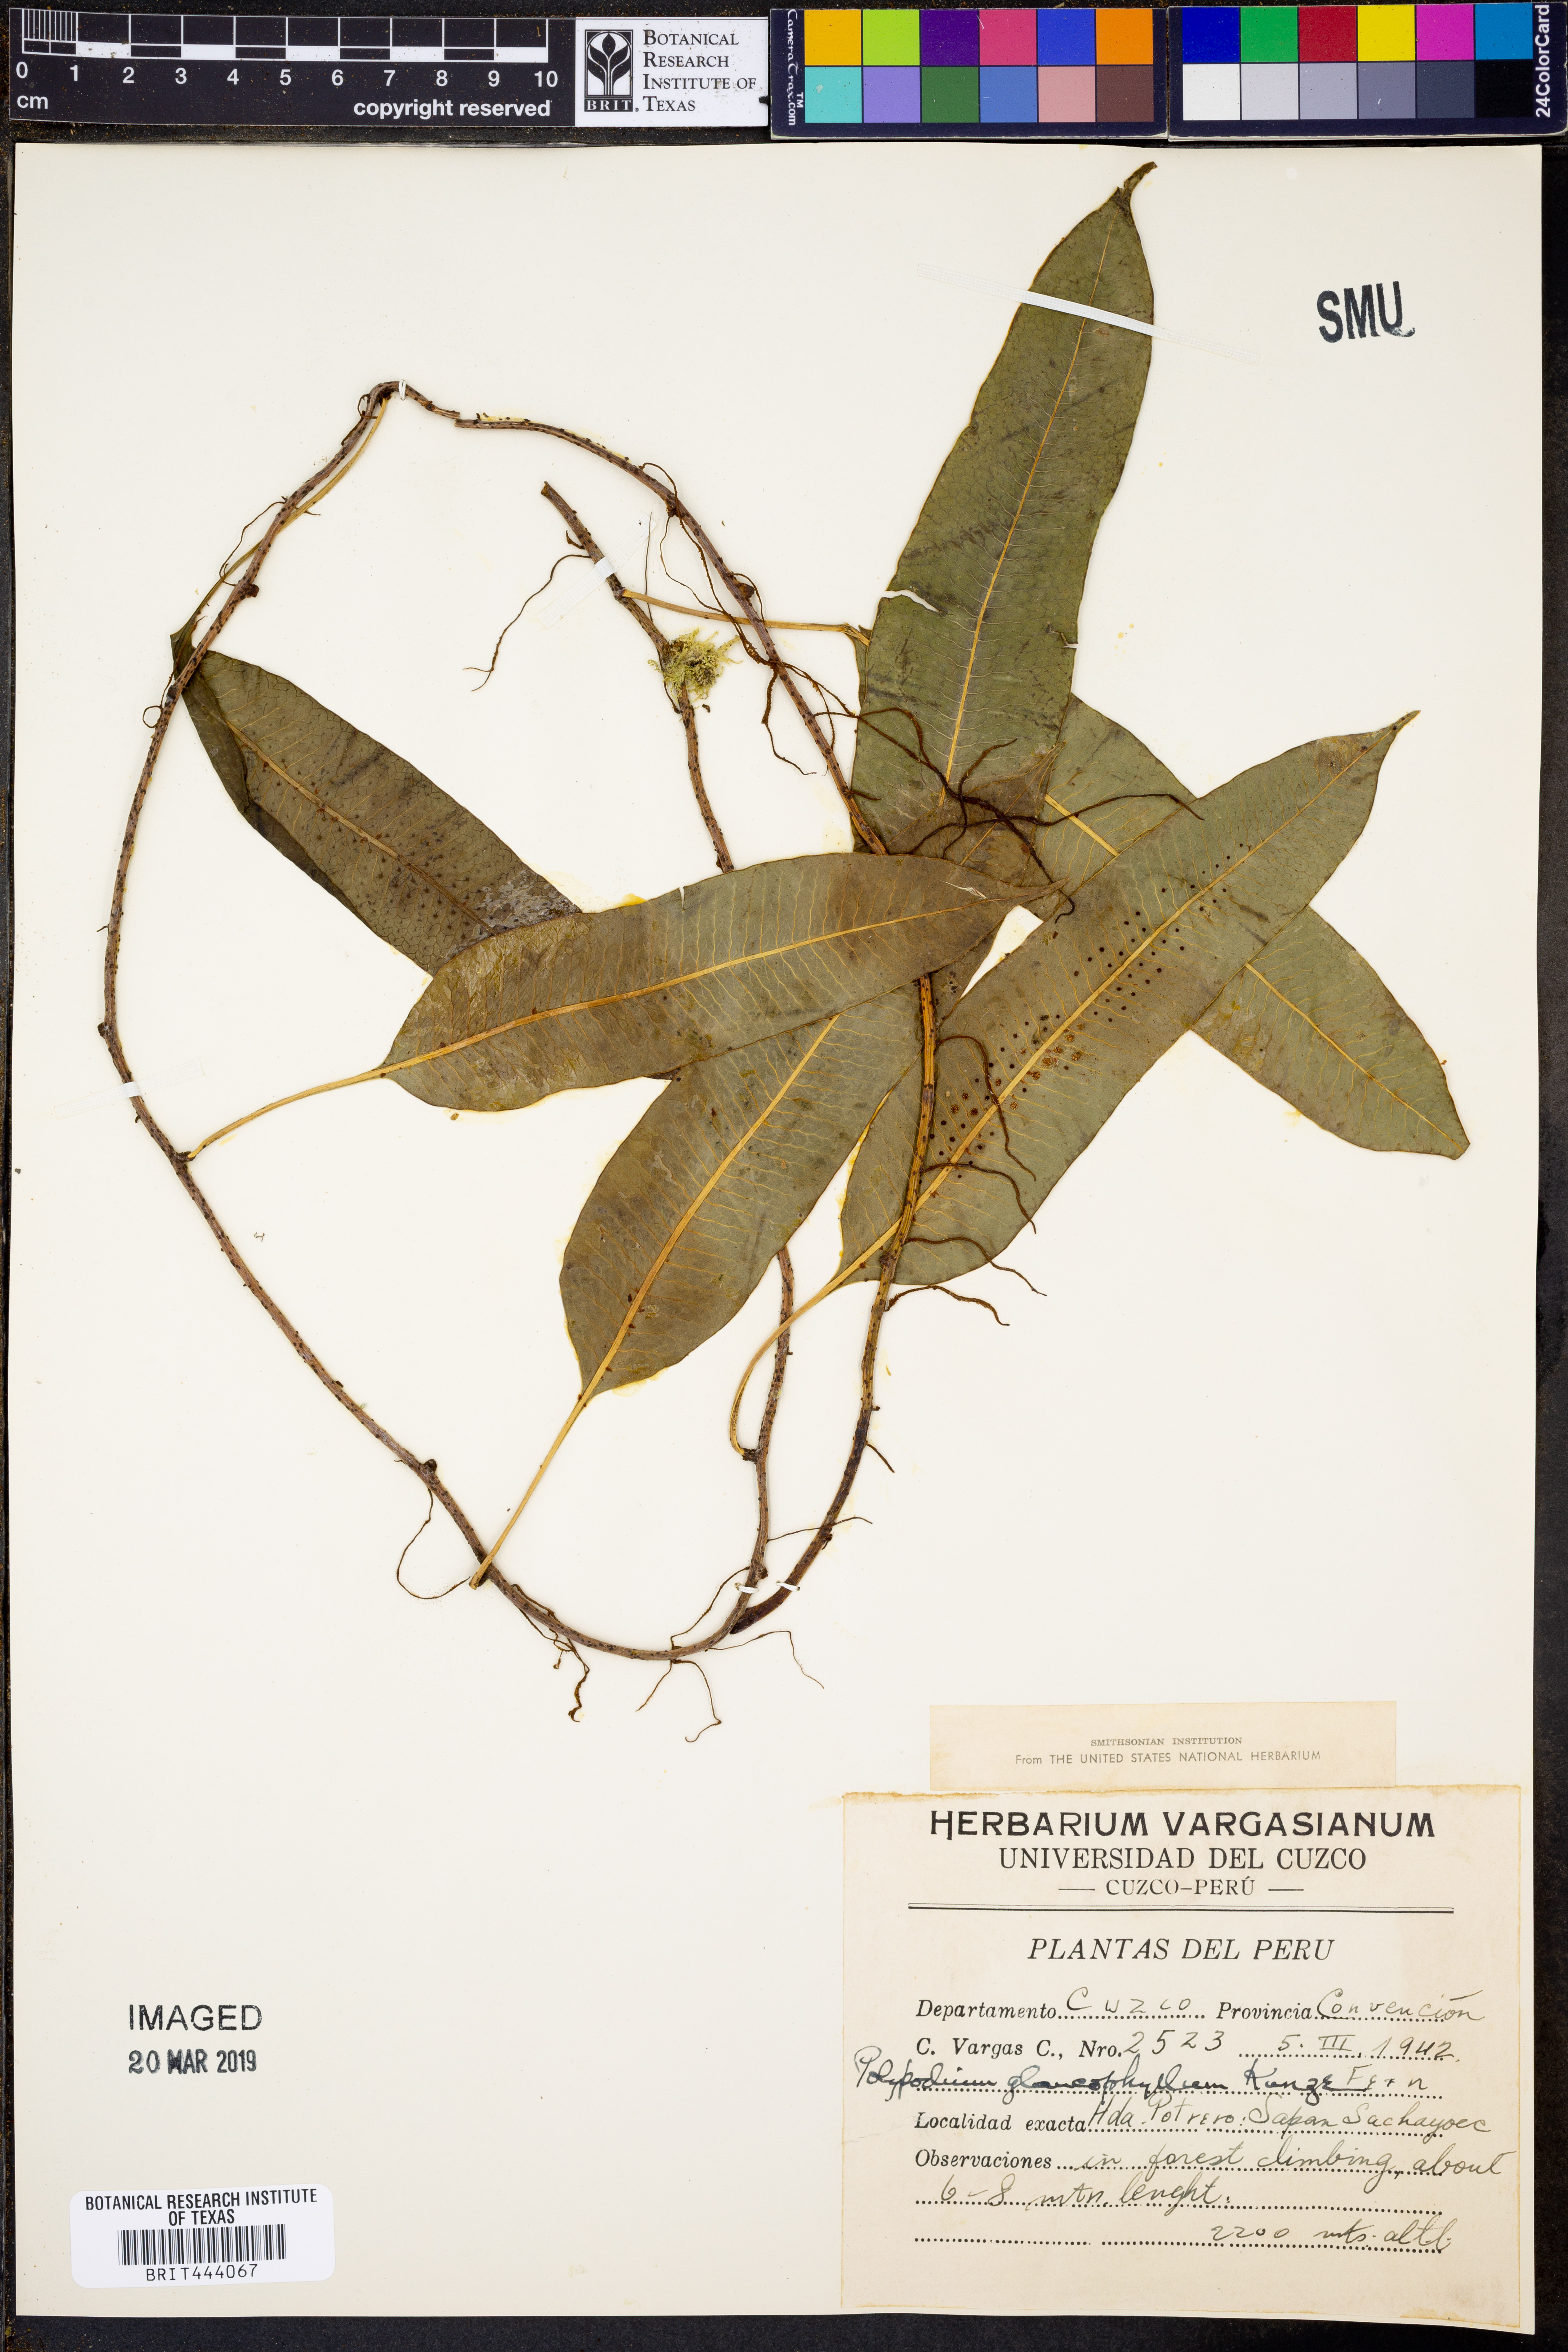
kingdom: Plantae
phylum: Tracheophyta
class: Polypodiopsida
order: Polypodiales
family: Polypodiaceae
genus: Polypodium
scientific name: Polypodium glaucophyllum
